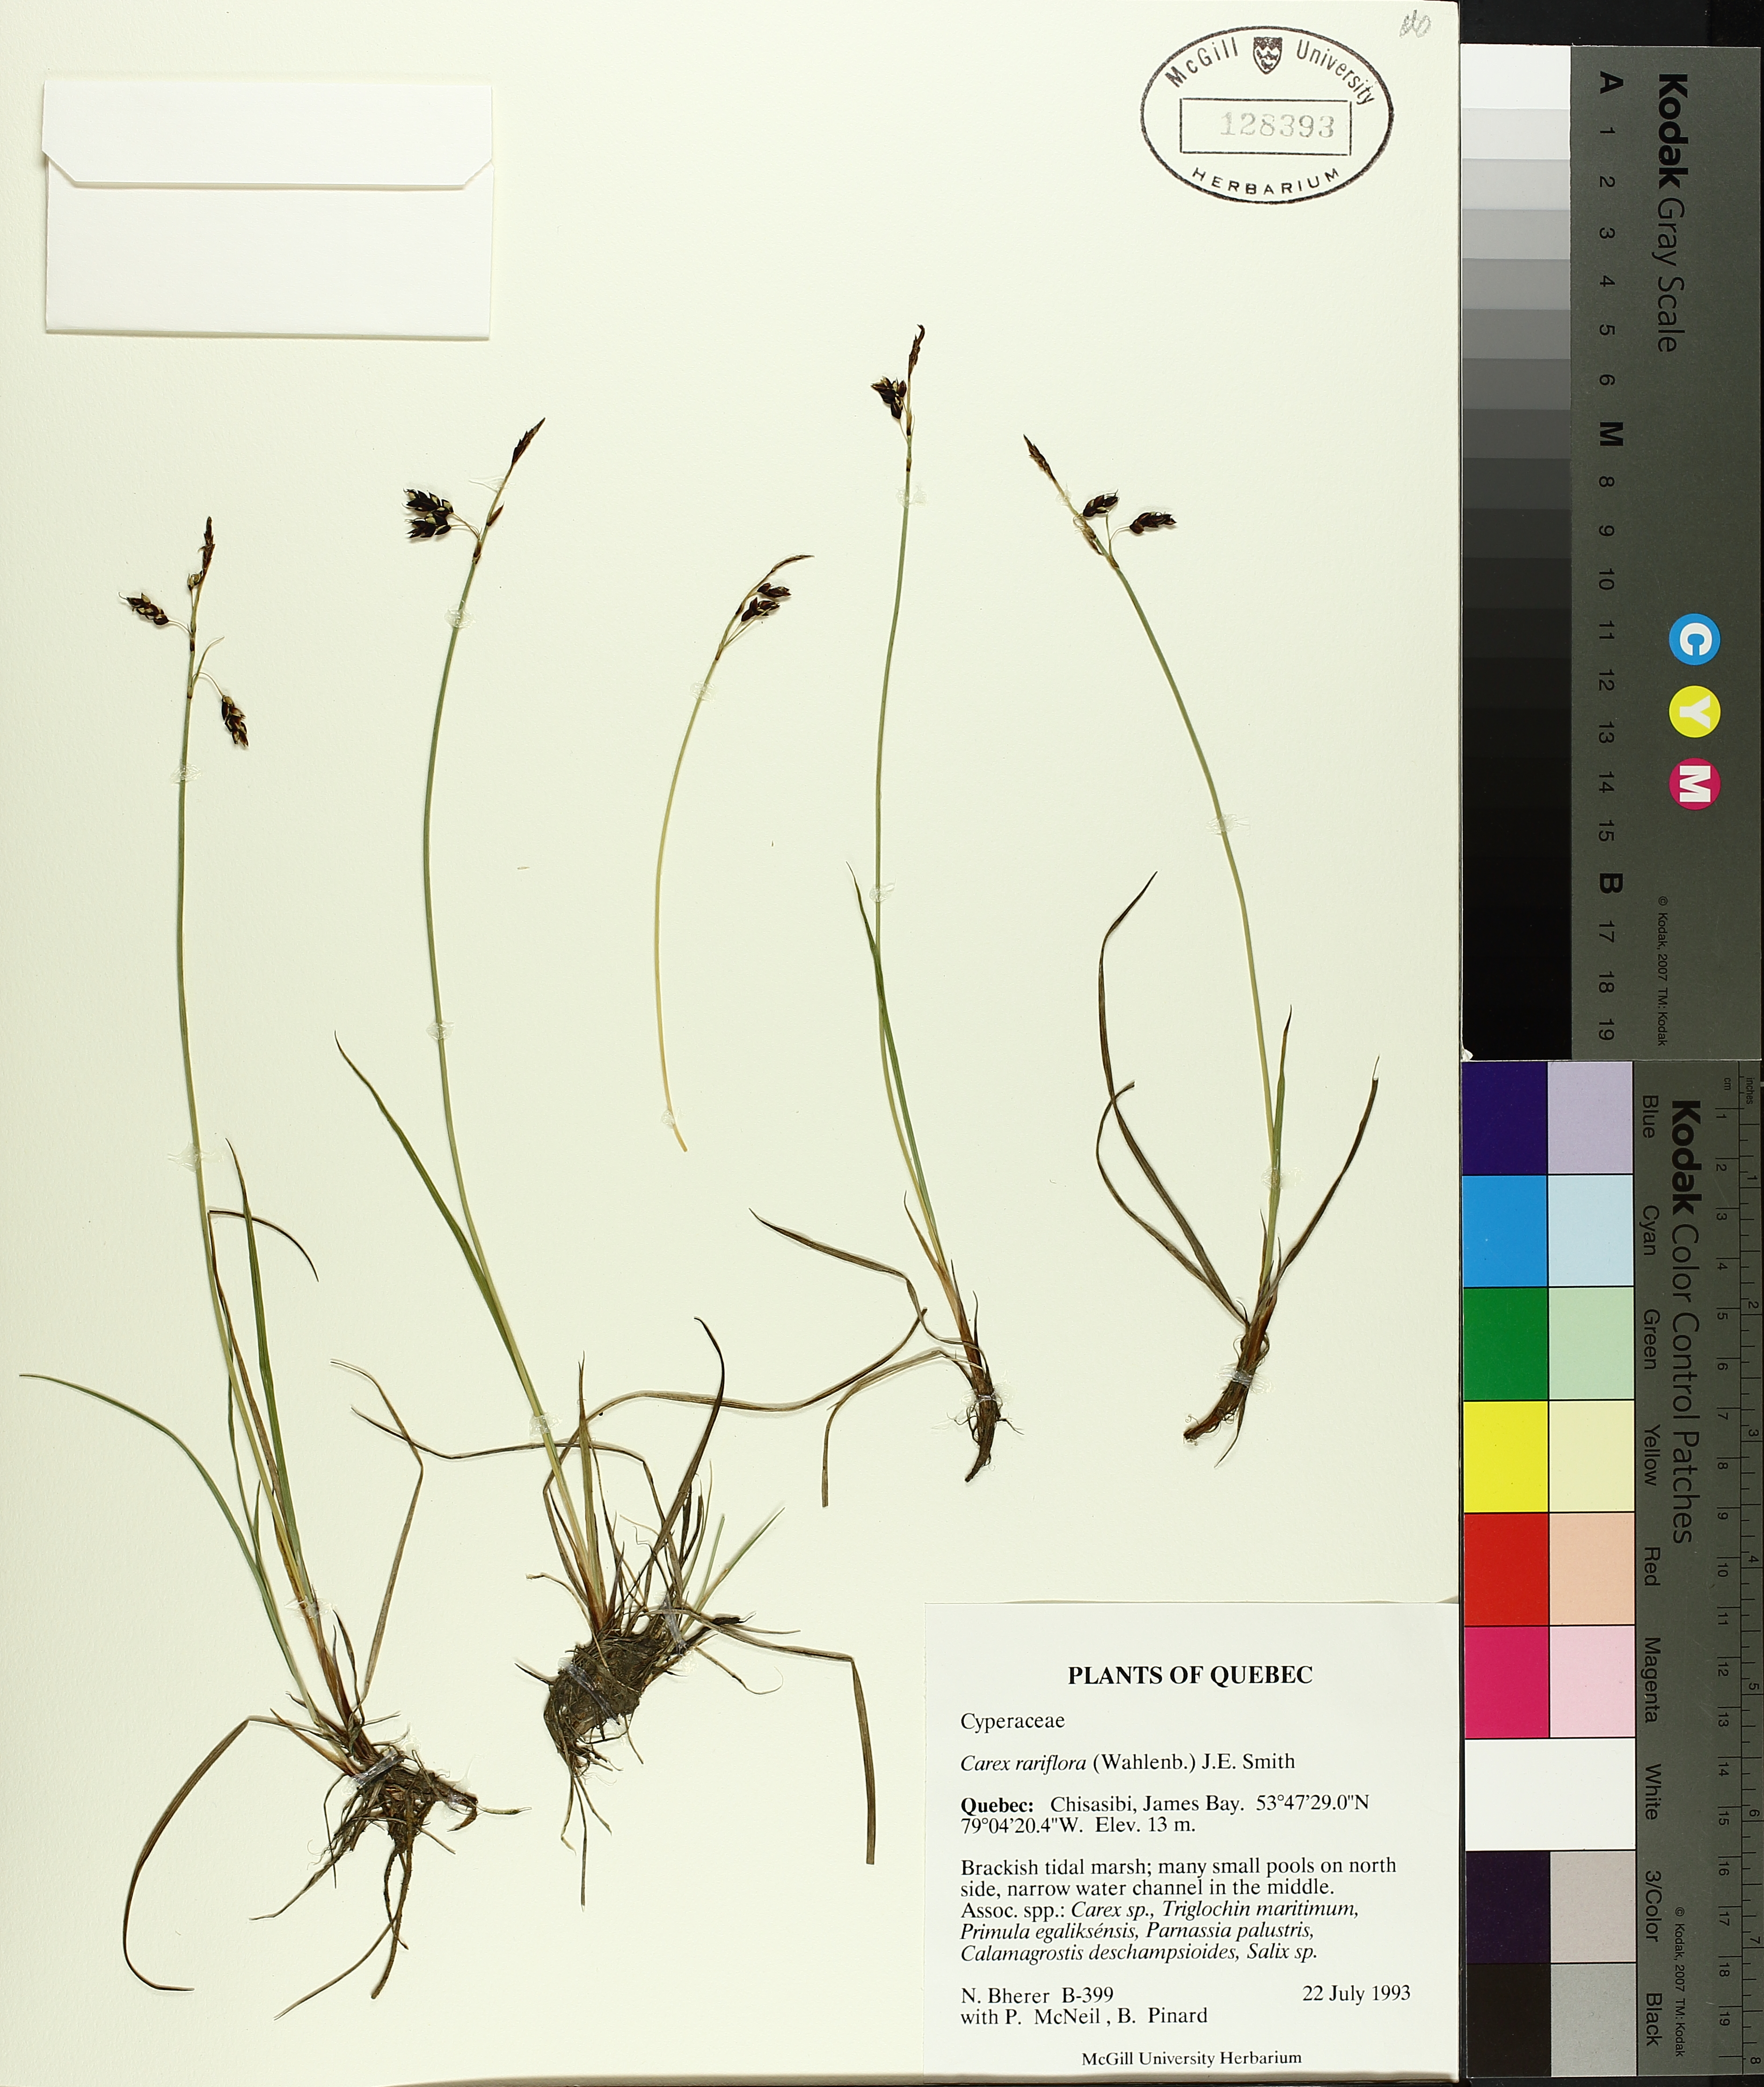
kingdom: Plantae
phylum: Tracheophyta
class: Liliopsida
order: Poales
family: Cyperaceae
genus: Carex
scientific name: Carex rariflora
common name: Loose-flowered alpine sedge
